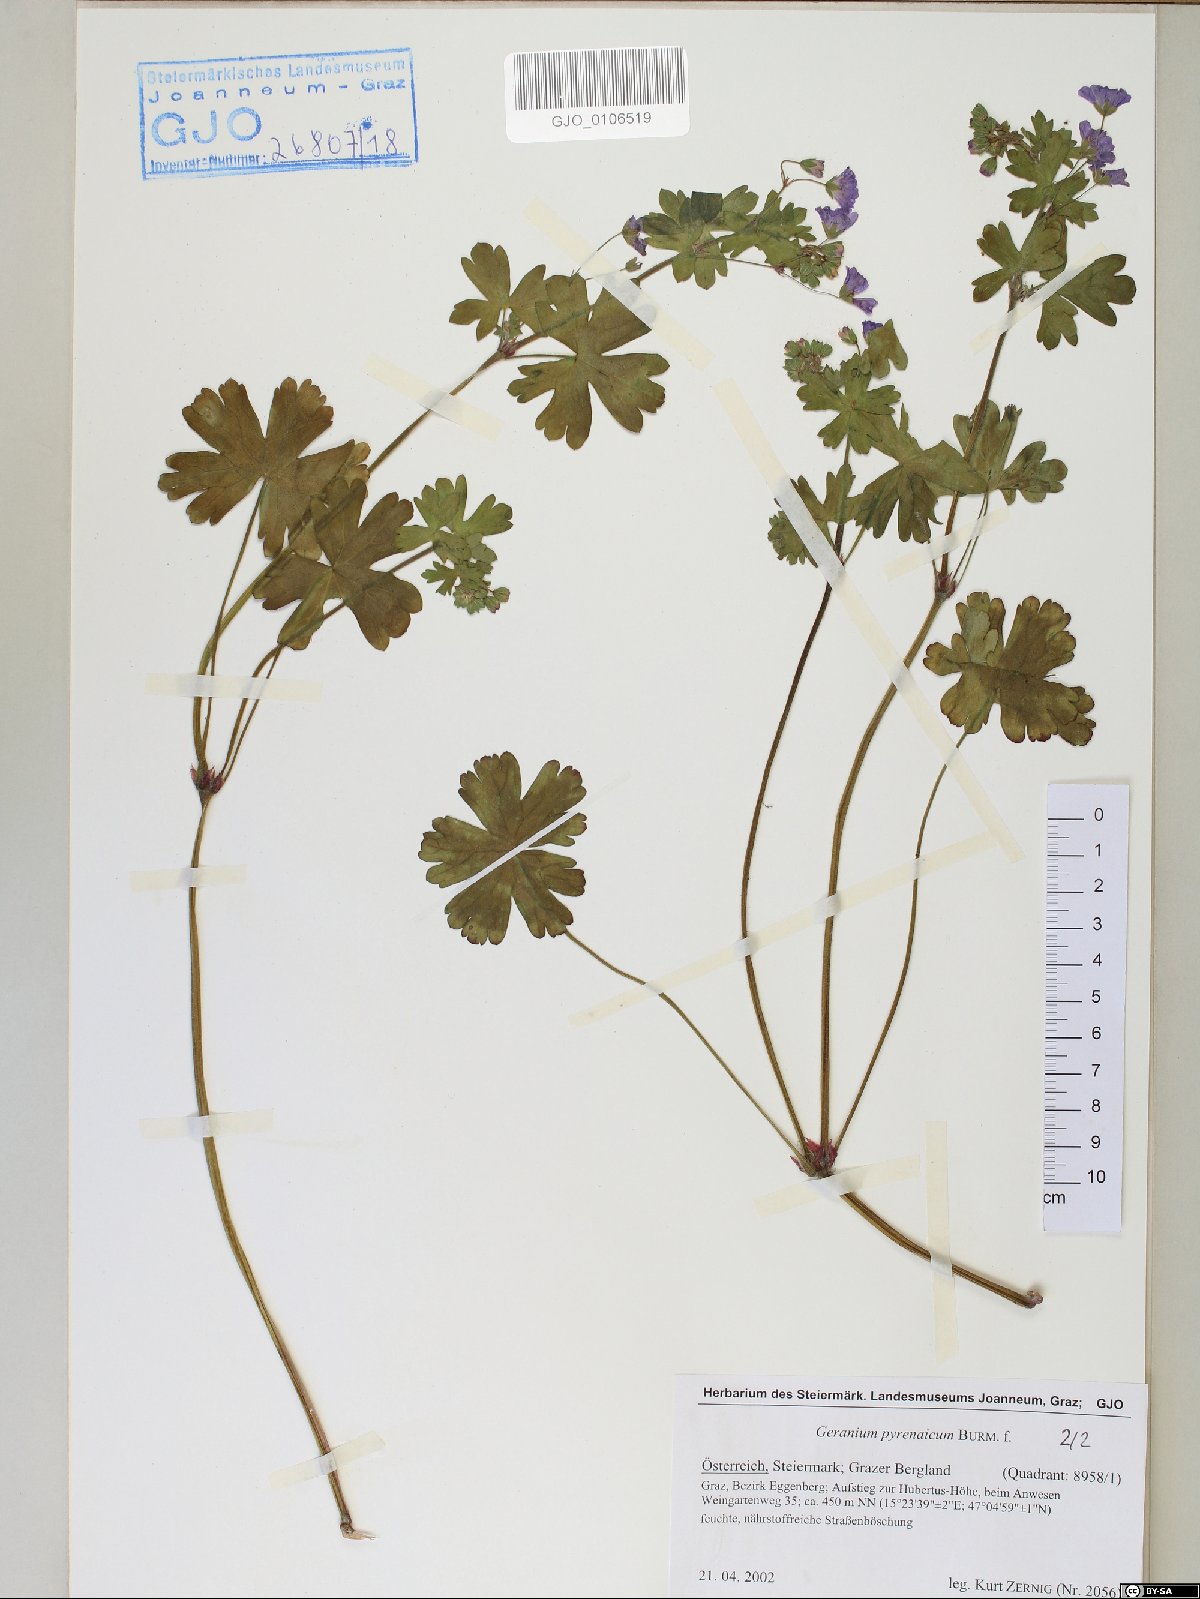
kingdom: Plantae
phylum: Tracheophyta
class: Magnoliopsida
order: Geraniales
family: Geraniaceae
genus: Geranium
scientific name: Geranium pyrenaicum
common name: Hedgerow crane's-bill
